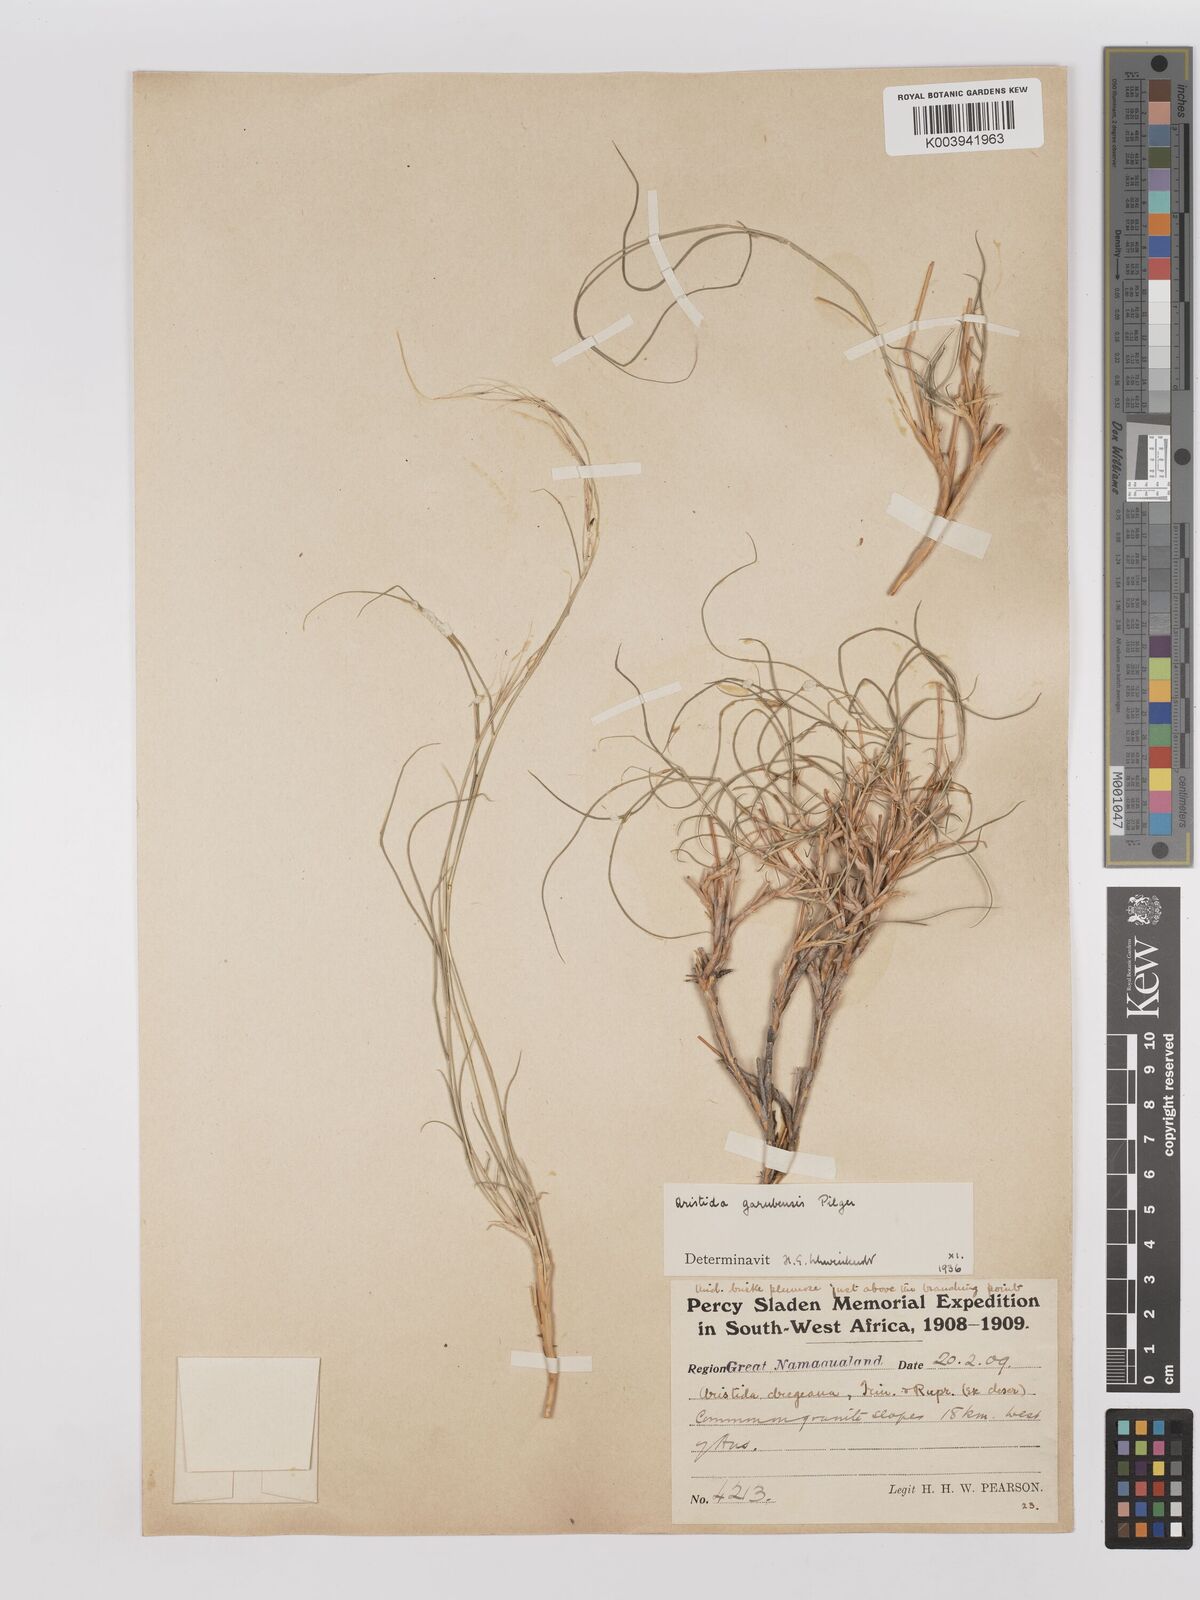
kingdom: Plantae
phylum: Tracheophyta
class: Liliopsida
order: Poales
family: Poaceae
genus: Stipagrostis
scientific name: Stipagrostis garubensis
